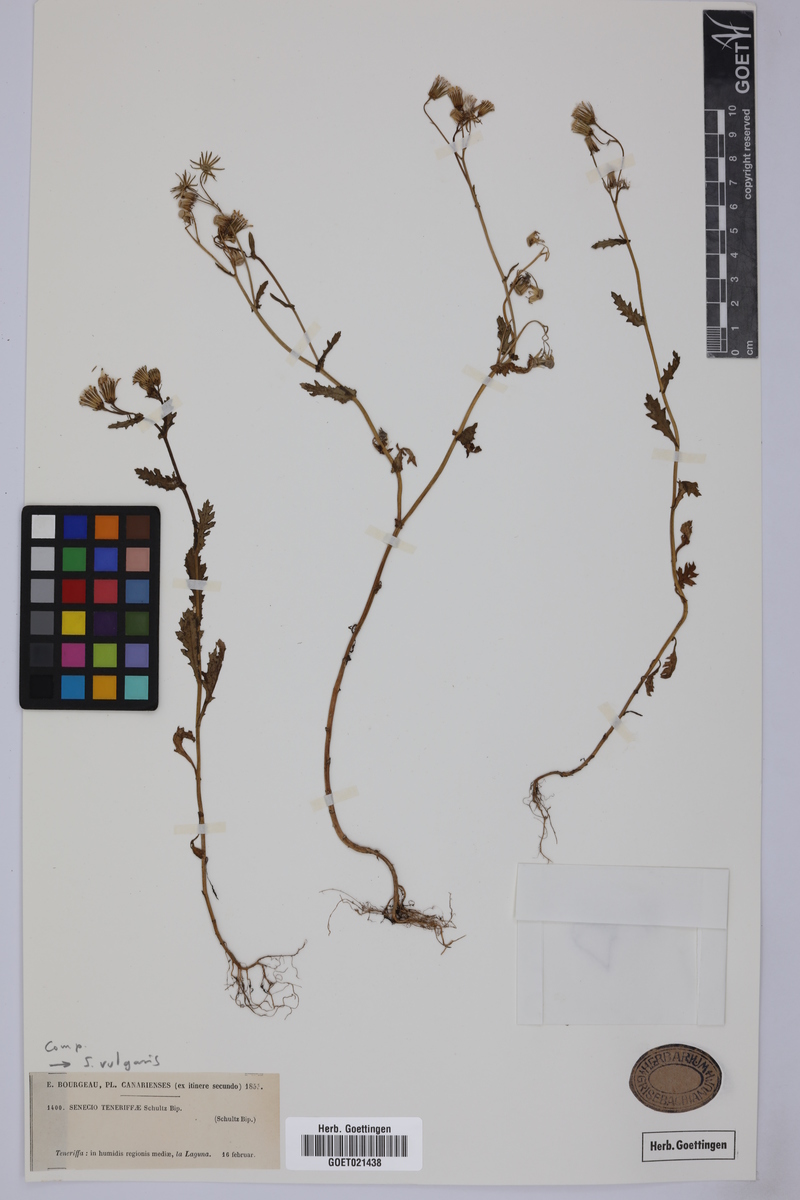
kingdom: Plantae
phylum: Tracheophyta
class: Magnoliopsida
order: Asterales
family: Asteraceae
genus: Senecio
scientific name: Senecio vulgaris
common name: Old-man-in-the-spring
